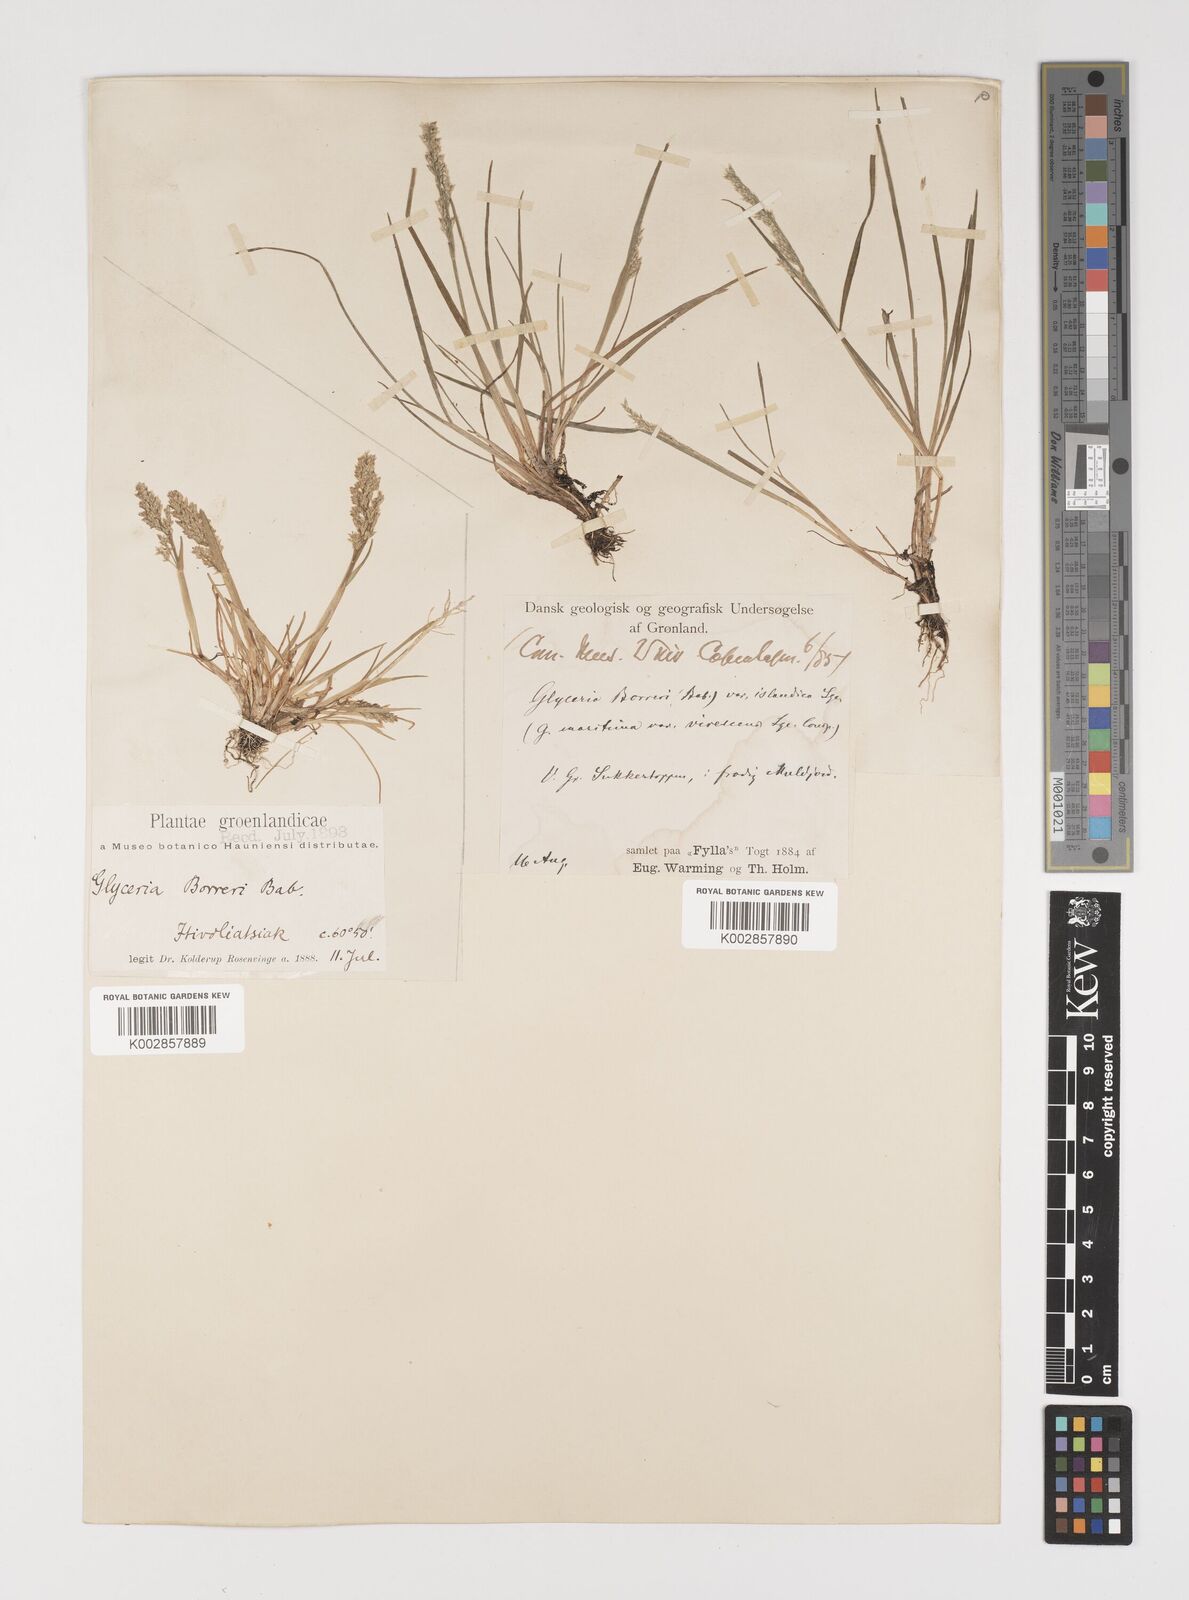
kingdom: Plantae
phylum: Tracheophyta
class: Liliopsida
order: Poales
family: Poaceae
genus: Puccinellia
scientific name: Puccinellia
